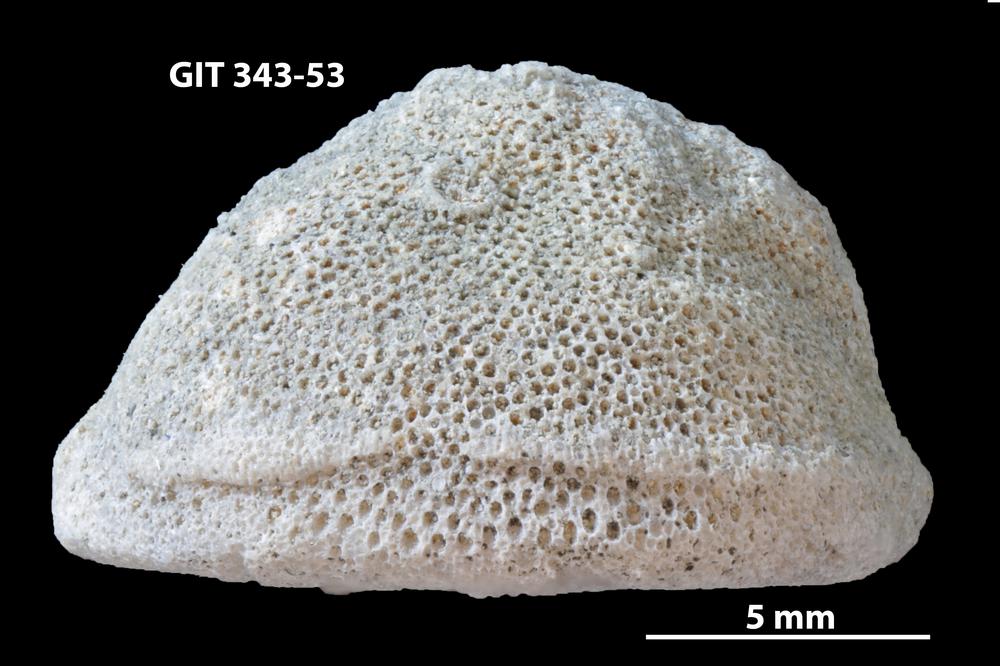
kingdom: Animalia
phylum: Bryozoa
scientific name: Bryozoa
